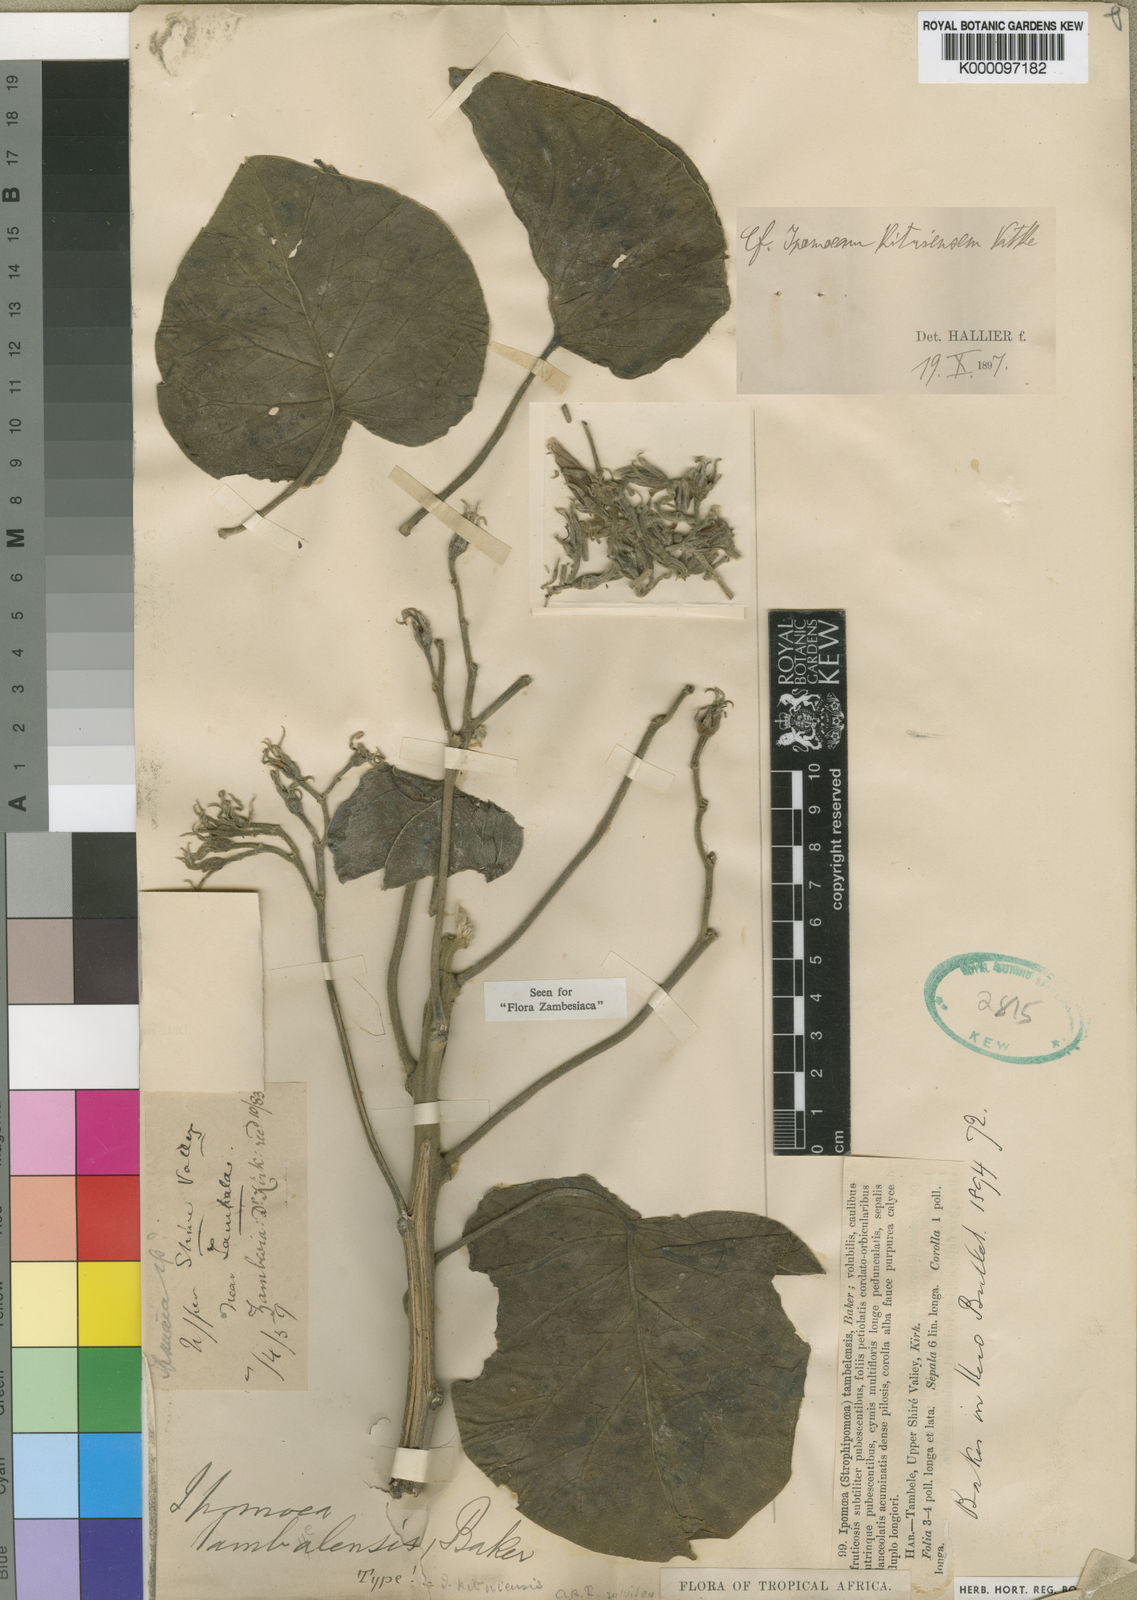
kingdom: Plantae
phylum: Tracheophyta
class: Magnoliopsida
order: Solanales
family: Convolvulaceae
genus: Ipomoea
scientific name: Ipomoea kituiensis
